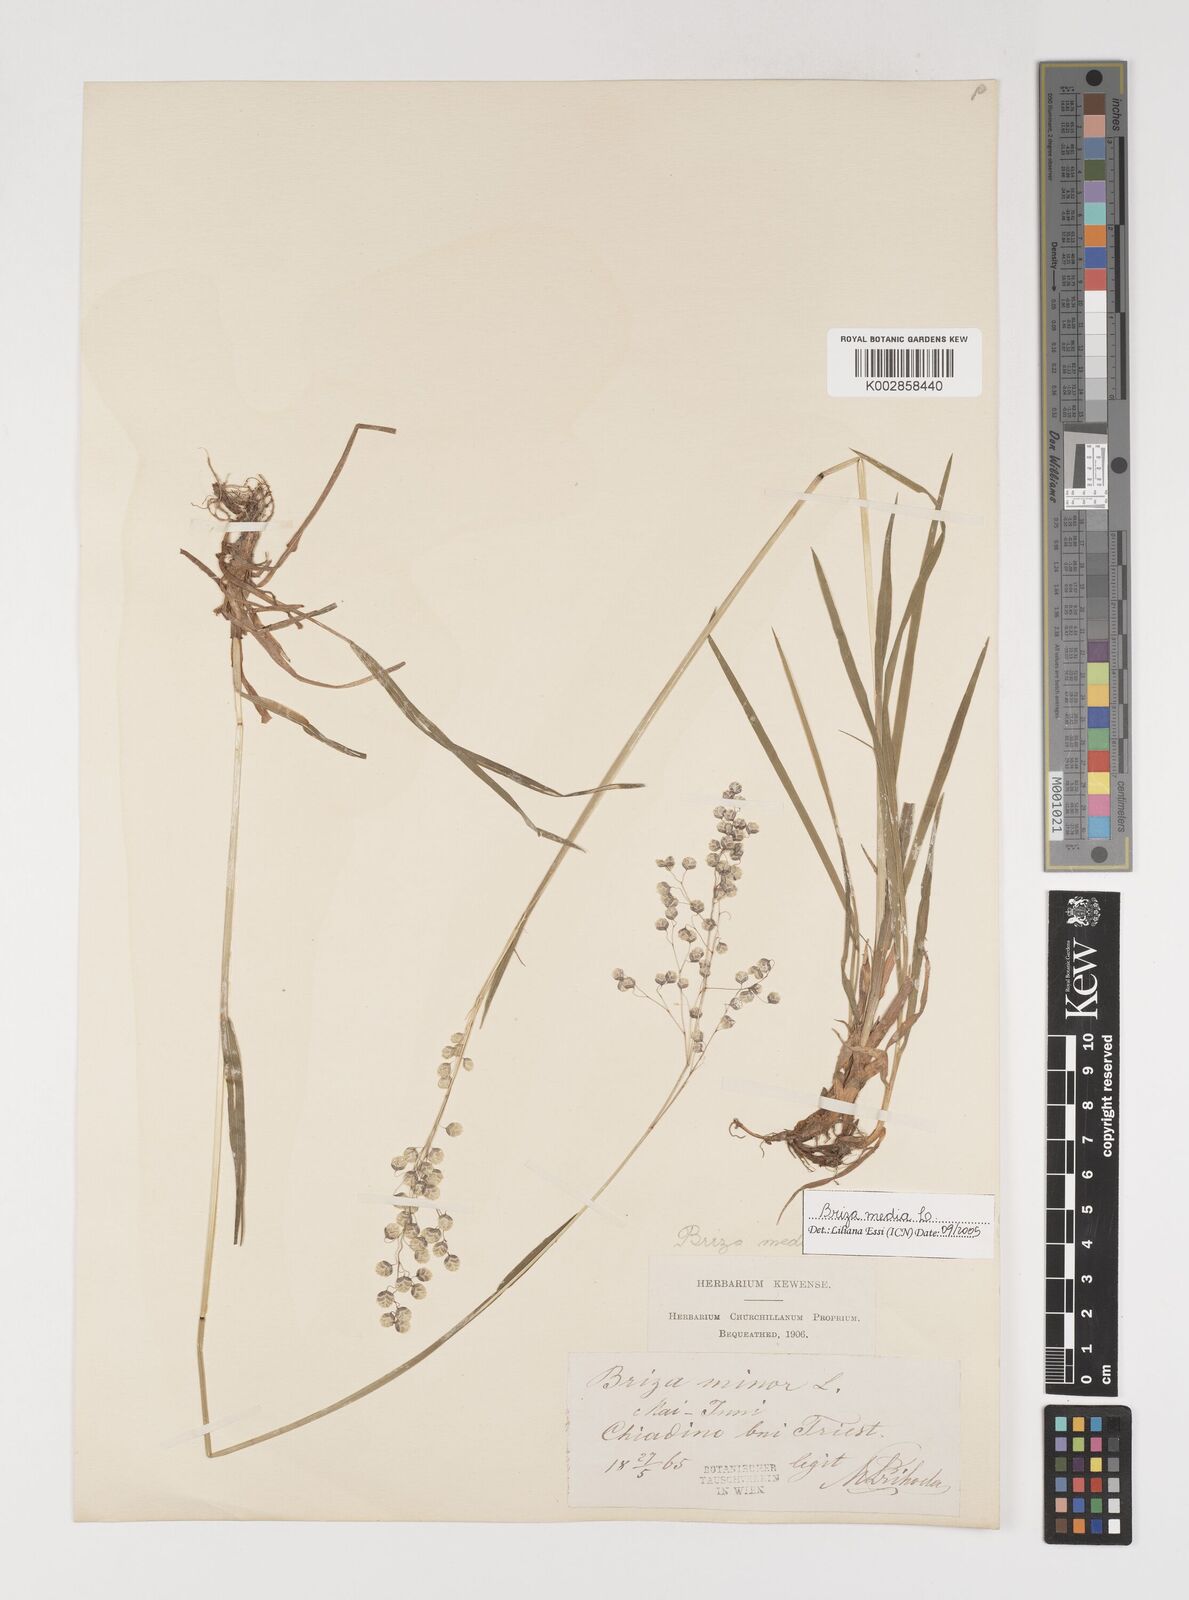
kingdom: Plantae
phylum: Tracheophyta
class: Liliopsida
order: Poales
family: Poaceae
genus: Briza
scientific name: Briza media
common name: Quaking grass
